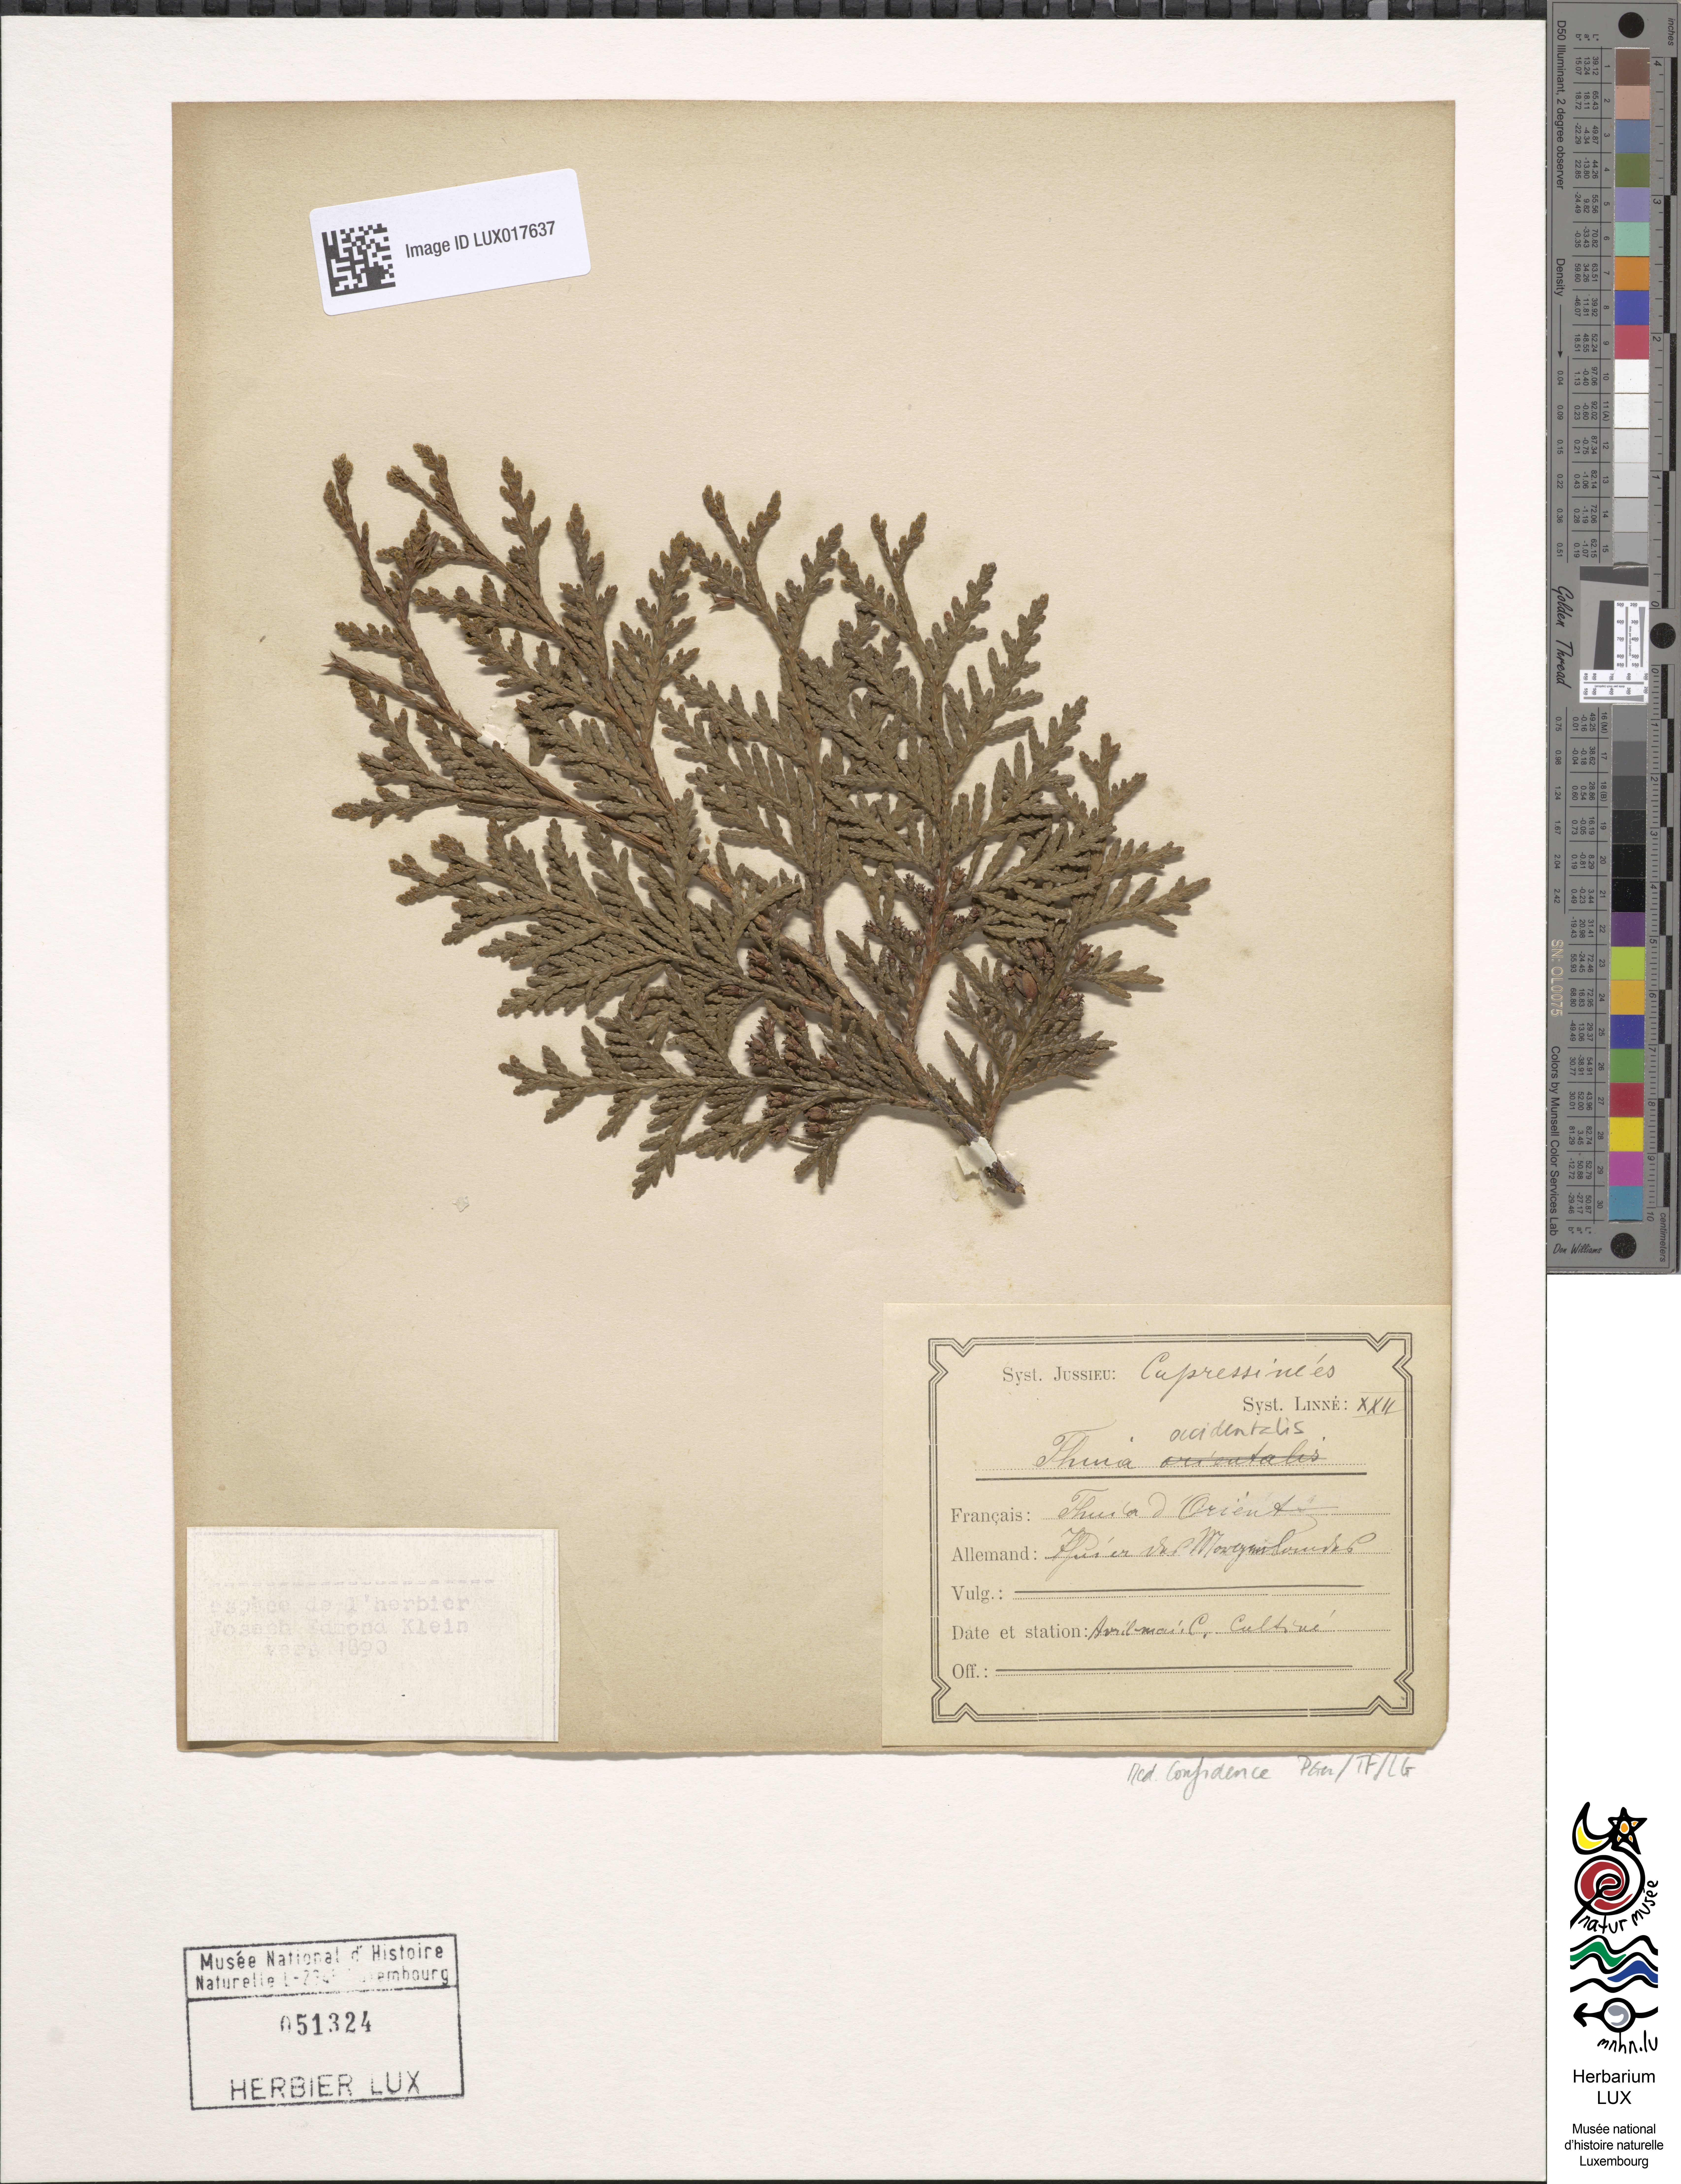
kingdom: Plantae
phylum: Tracheophyta
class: Pinopsida
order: Pinales
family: Cupressaceae
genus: Thuja
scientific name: Thuja occidentalis
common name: Northern white-cedar
